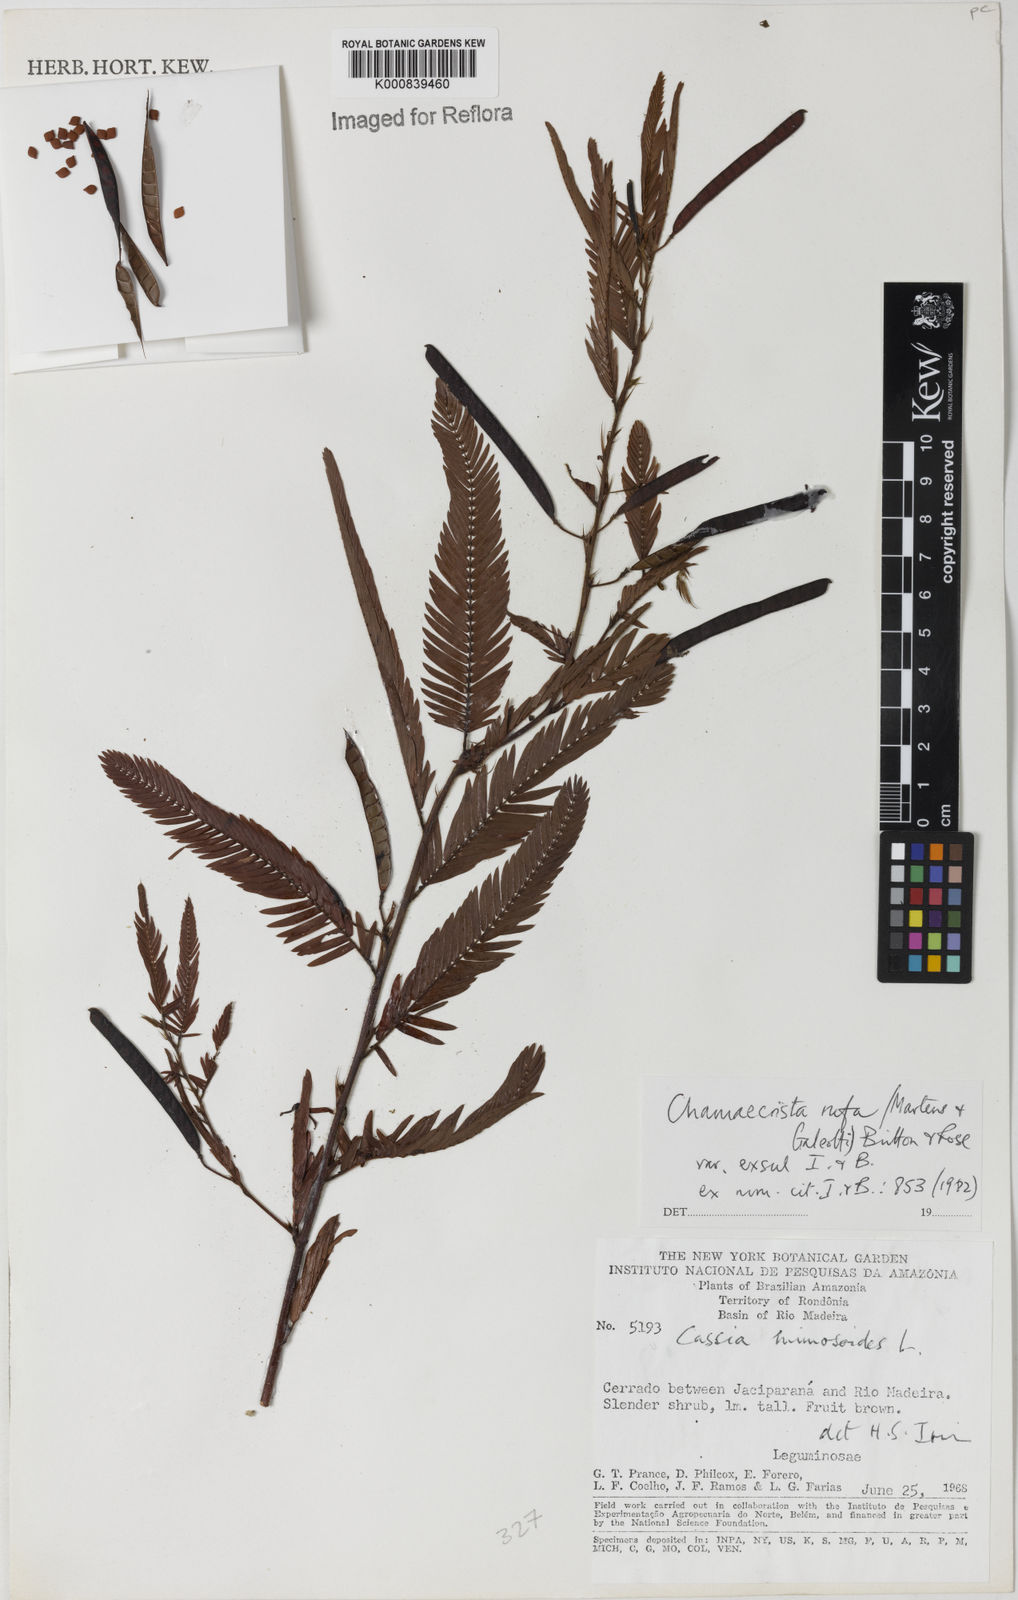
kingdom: Plantae
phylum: Tracheophyta
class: Magnoliopsida
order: Fabales
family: Fabaceae
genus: Chamaecrista
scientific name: Chamaecrista rufa
